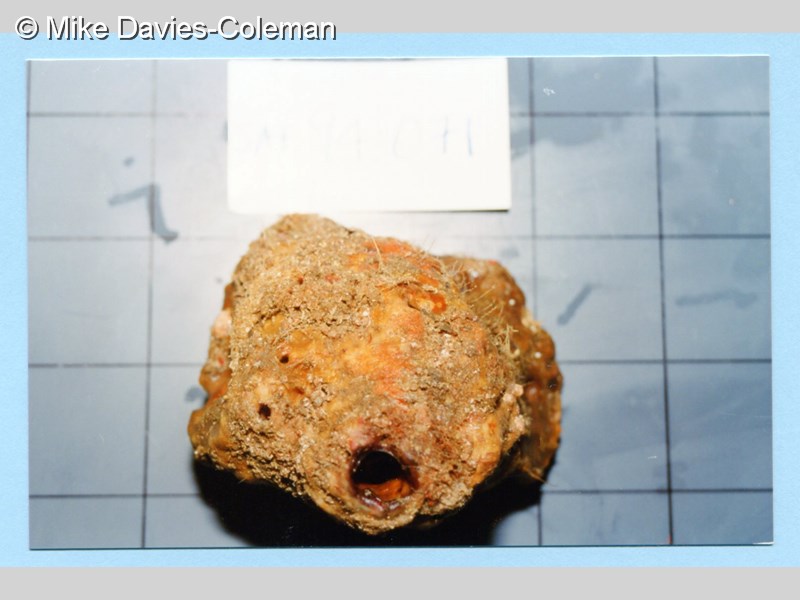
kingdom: Animalia
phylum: Porifera
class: Demospongiae
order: Tetractinellida
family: Geodiidae
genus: Penares
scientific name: Penares
